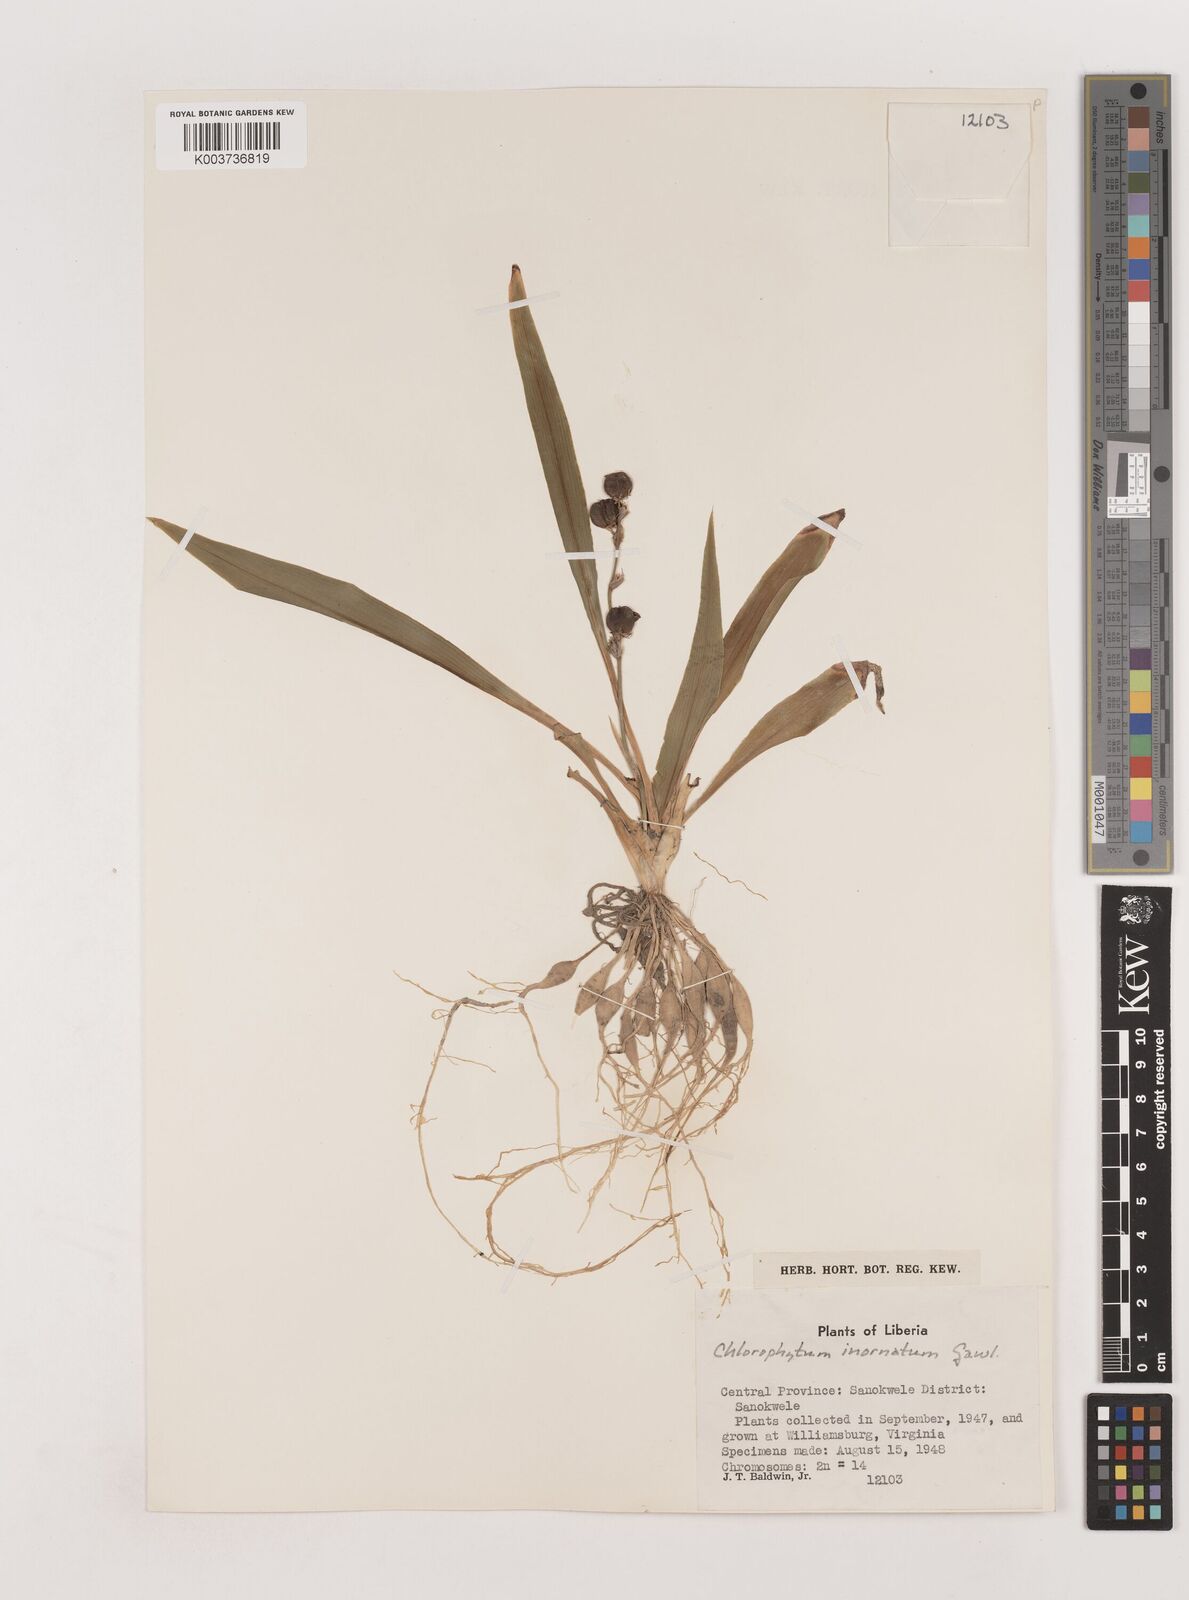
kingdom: Plantae
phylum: Tracheophyta
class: Liliopsida
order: Asparagales
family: Asparagaceae
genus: Chlorophytum
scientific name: Chlorophytum inornatum
